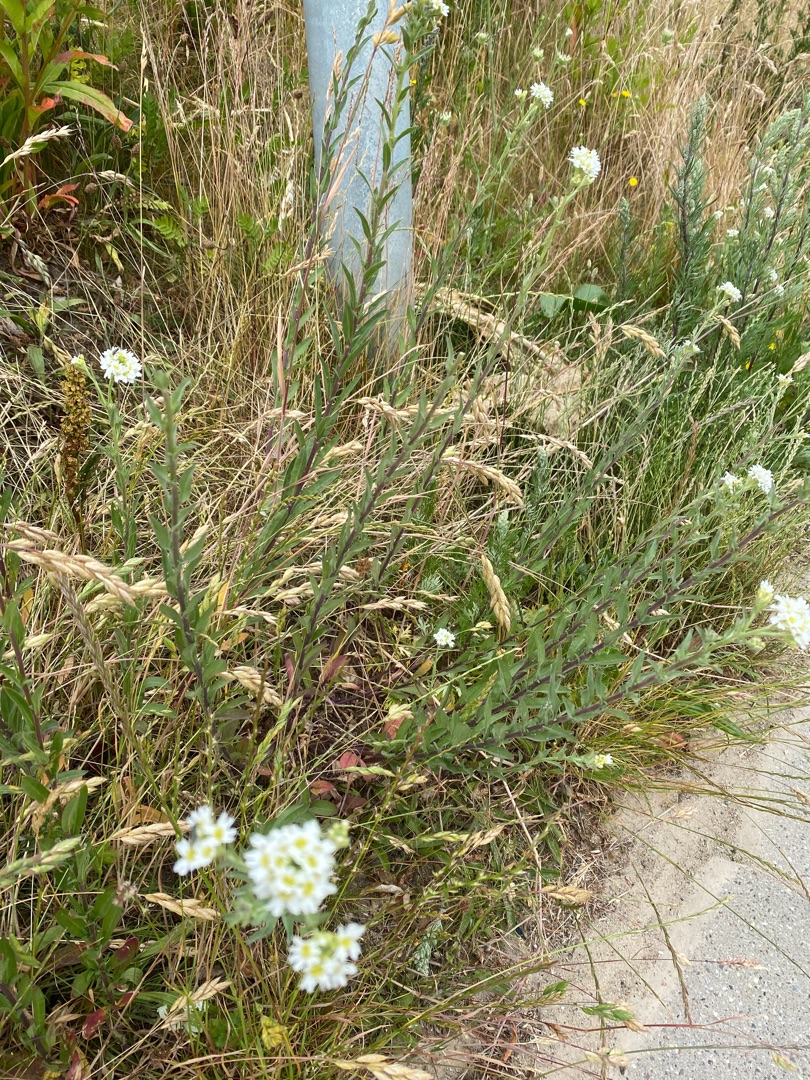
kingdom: Plantae
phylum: Tracheophyta
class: Magnoliopsida
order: Brassicales
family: Brassicaceae
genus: Berteroa
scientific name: Berteroa incana
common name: Kløvplade
